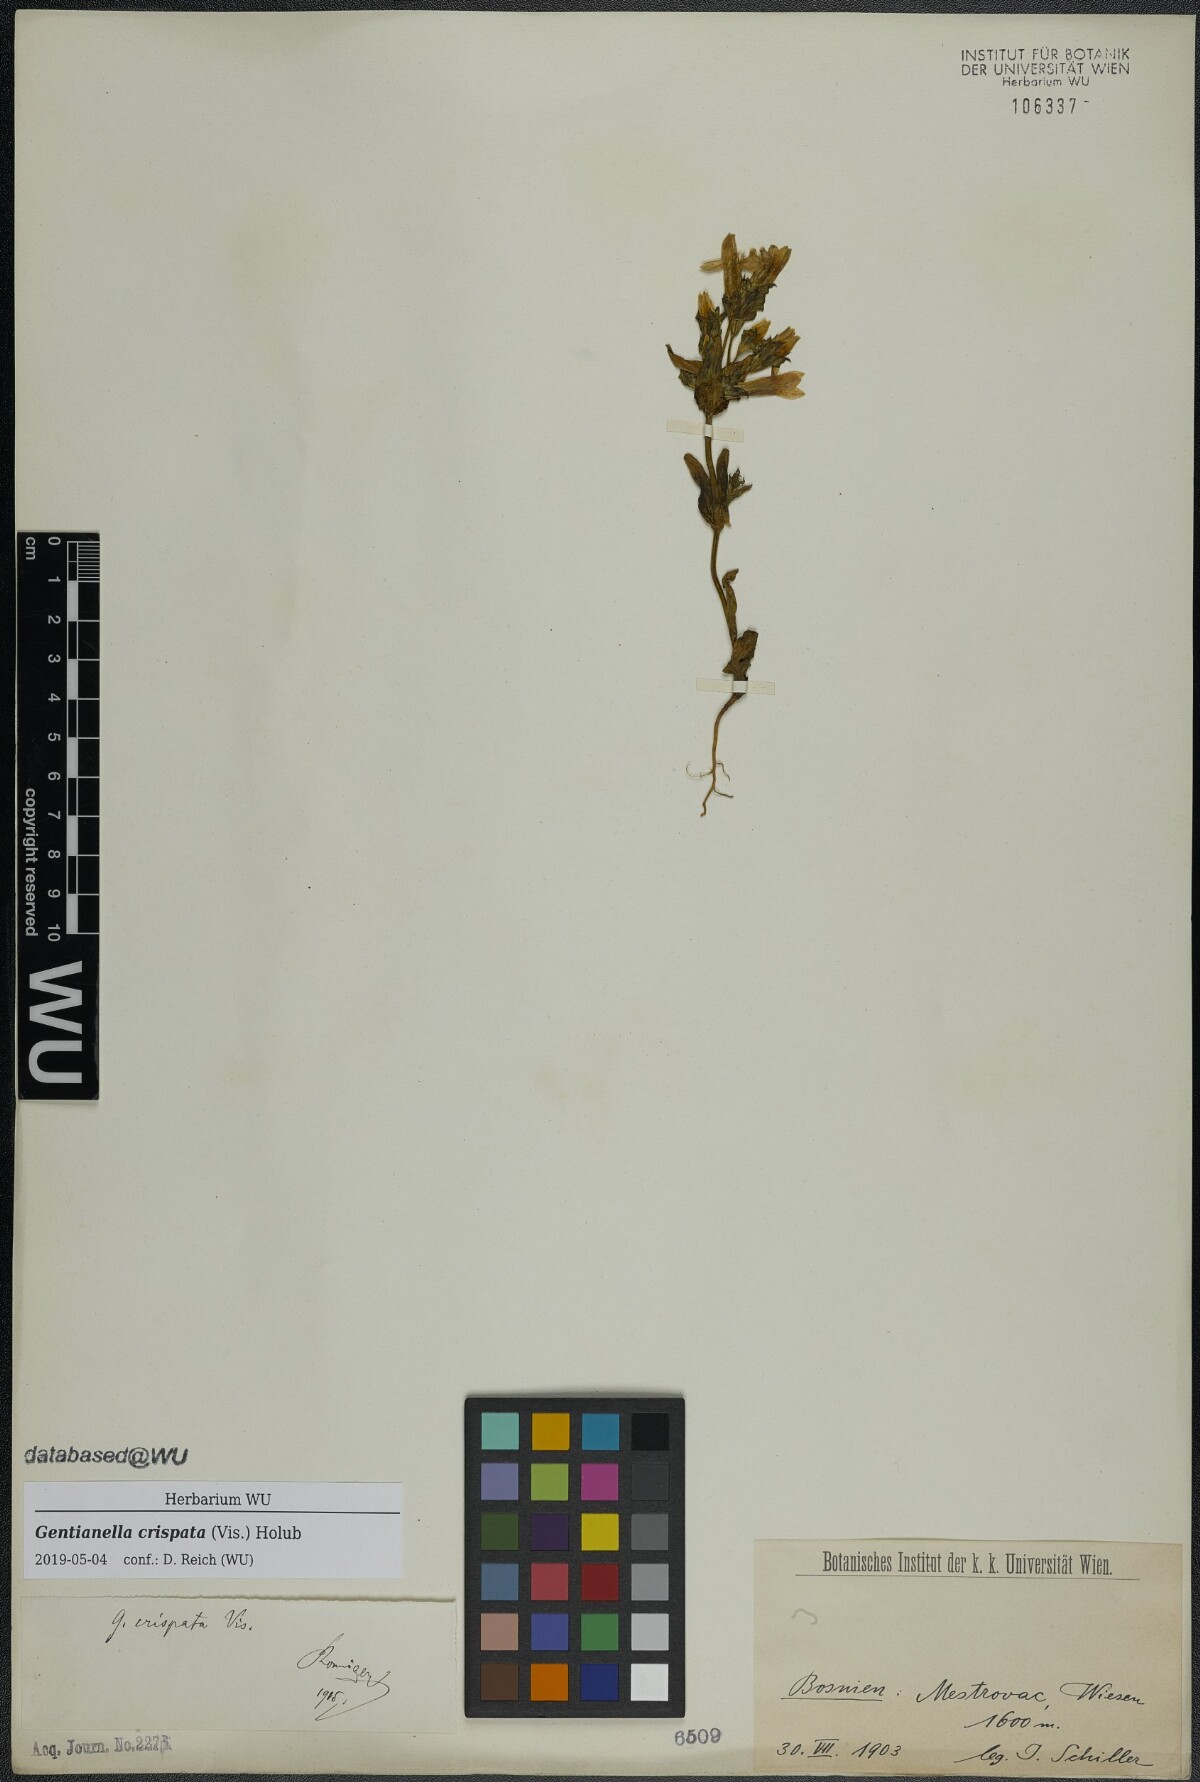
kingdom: Plantae
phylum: Tracheophyta
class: Magnoliopsida
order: Gentianales
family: Gentianaceae
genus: Gentianella
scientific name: Gentianella crispata
